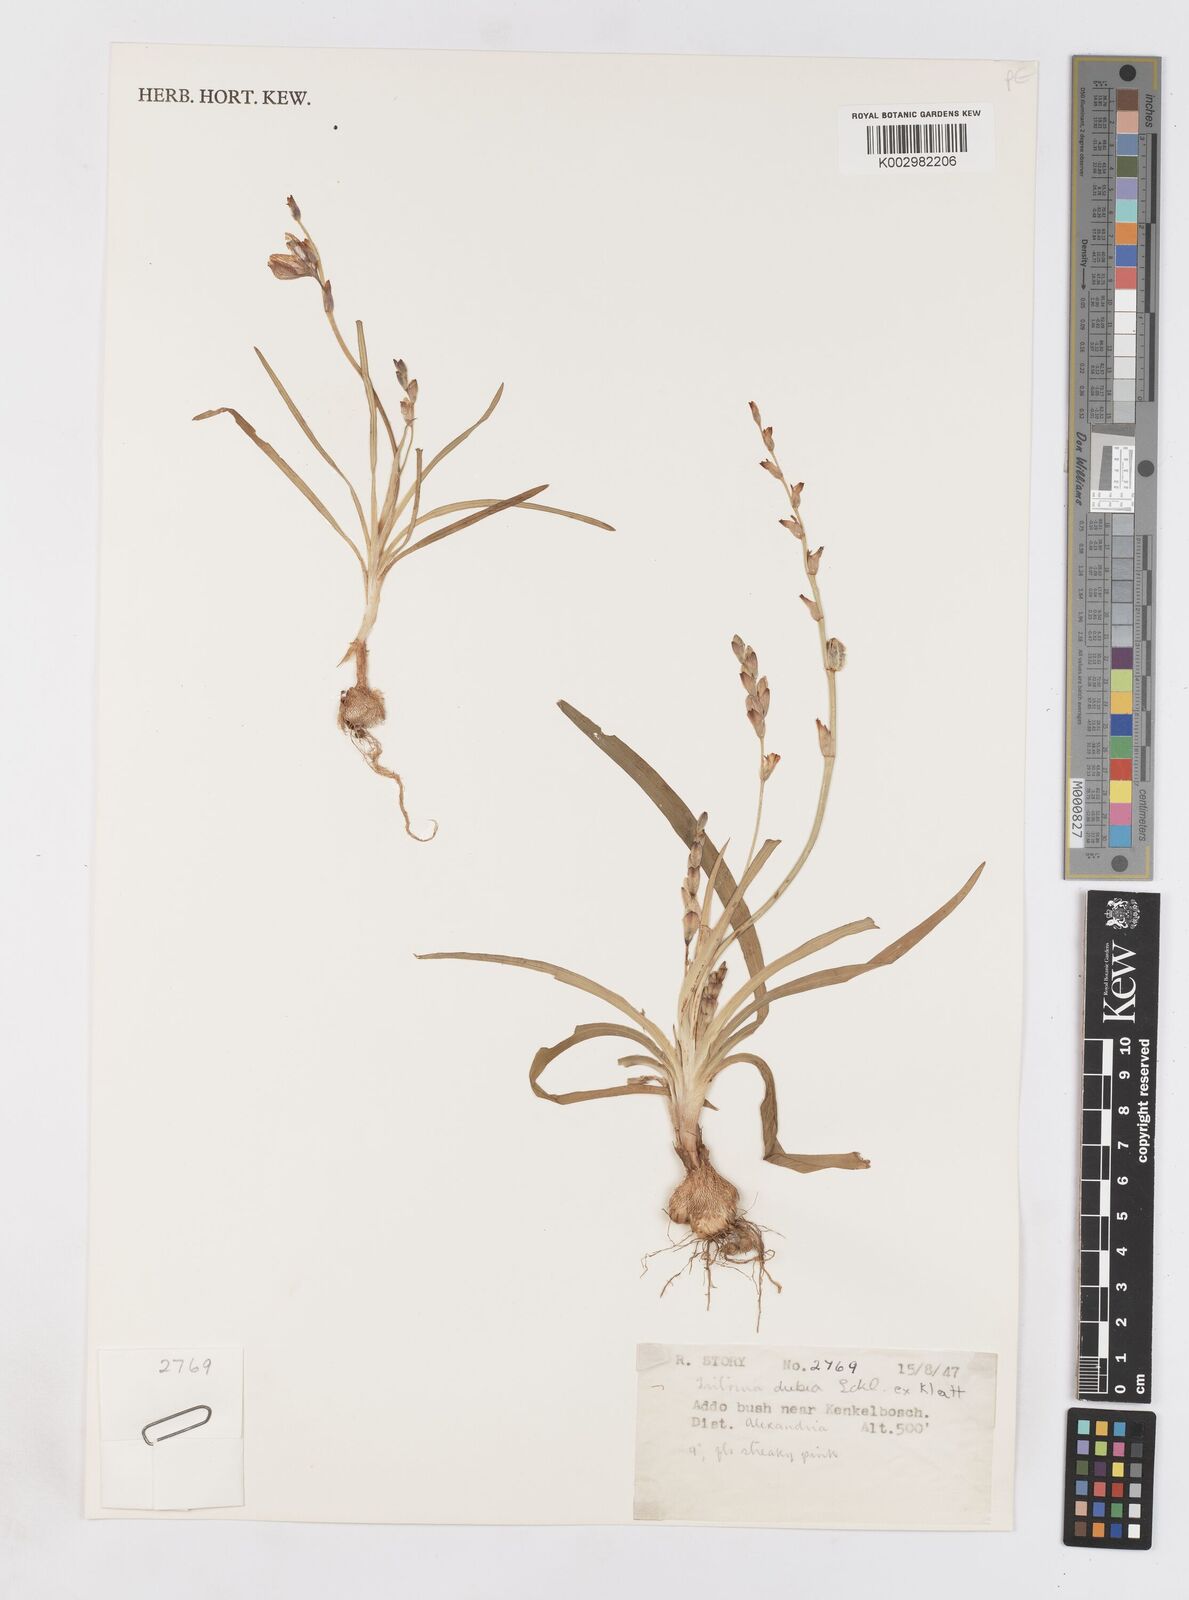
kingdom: Plantae
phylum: Tracheophyta
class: Liliopsida
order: Asparagales
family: Iridaceae
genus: Tritonia
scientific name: Tritonia dubia
